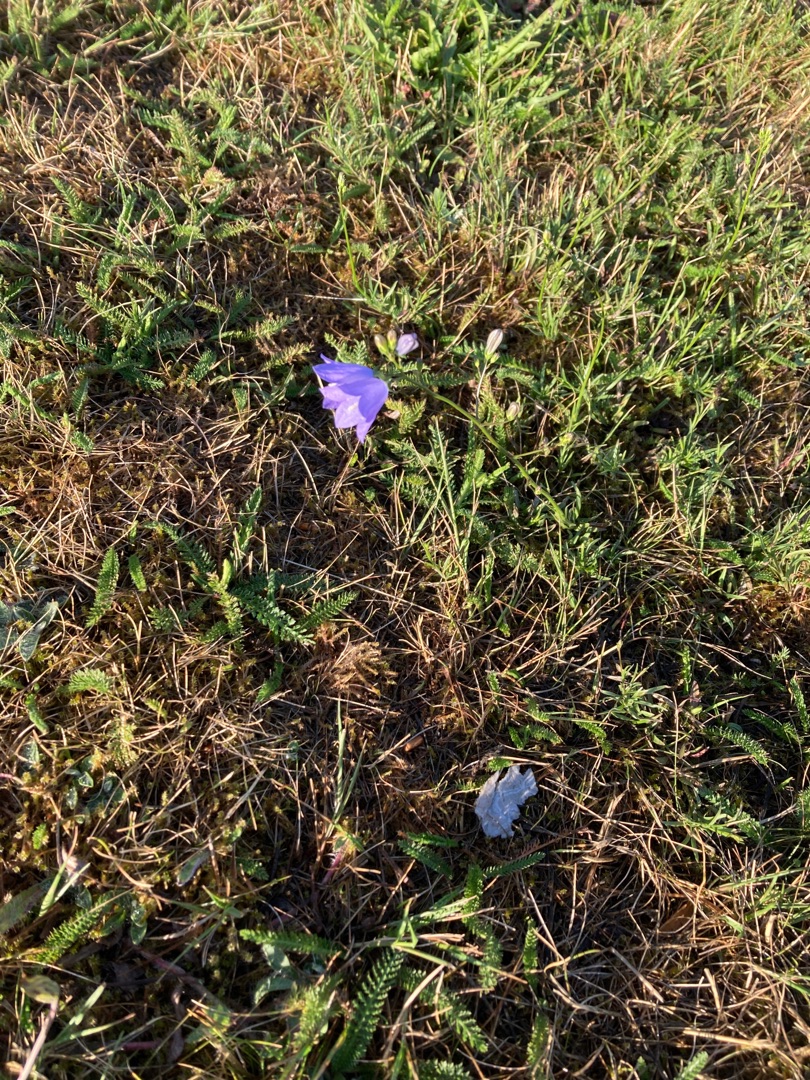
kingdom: Plantae
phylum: Tracheophyta
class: Magnoliopsida
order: Asterales
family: Campanulaceae
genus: Campanula
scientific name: Campanula rotundifolia
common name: Liden klokke
